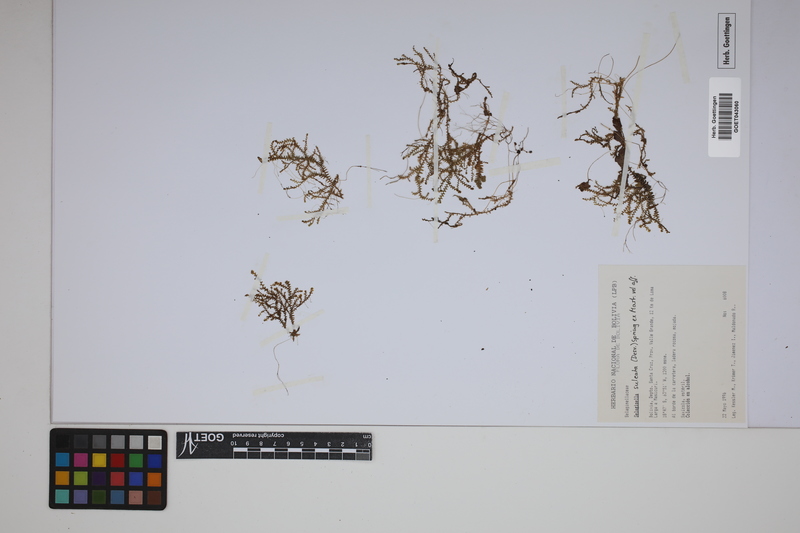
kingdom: Plantae
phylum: Tracheophyta
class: Lycopodiopsida
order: Selaginellales
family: Selaginellaceae
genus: Selaginella
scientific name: Selaginella sulcata
